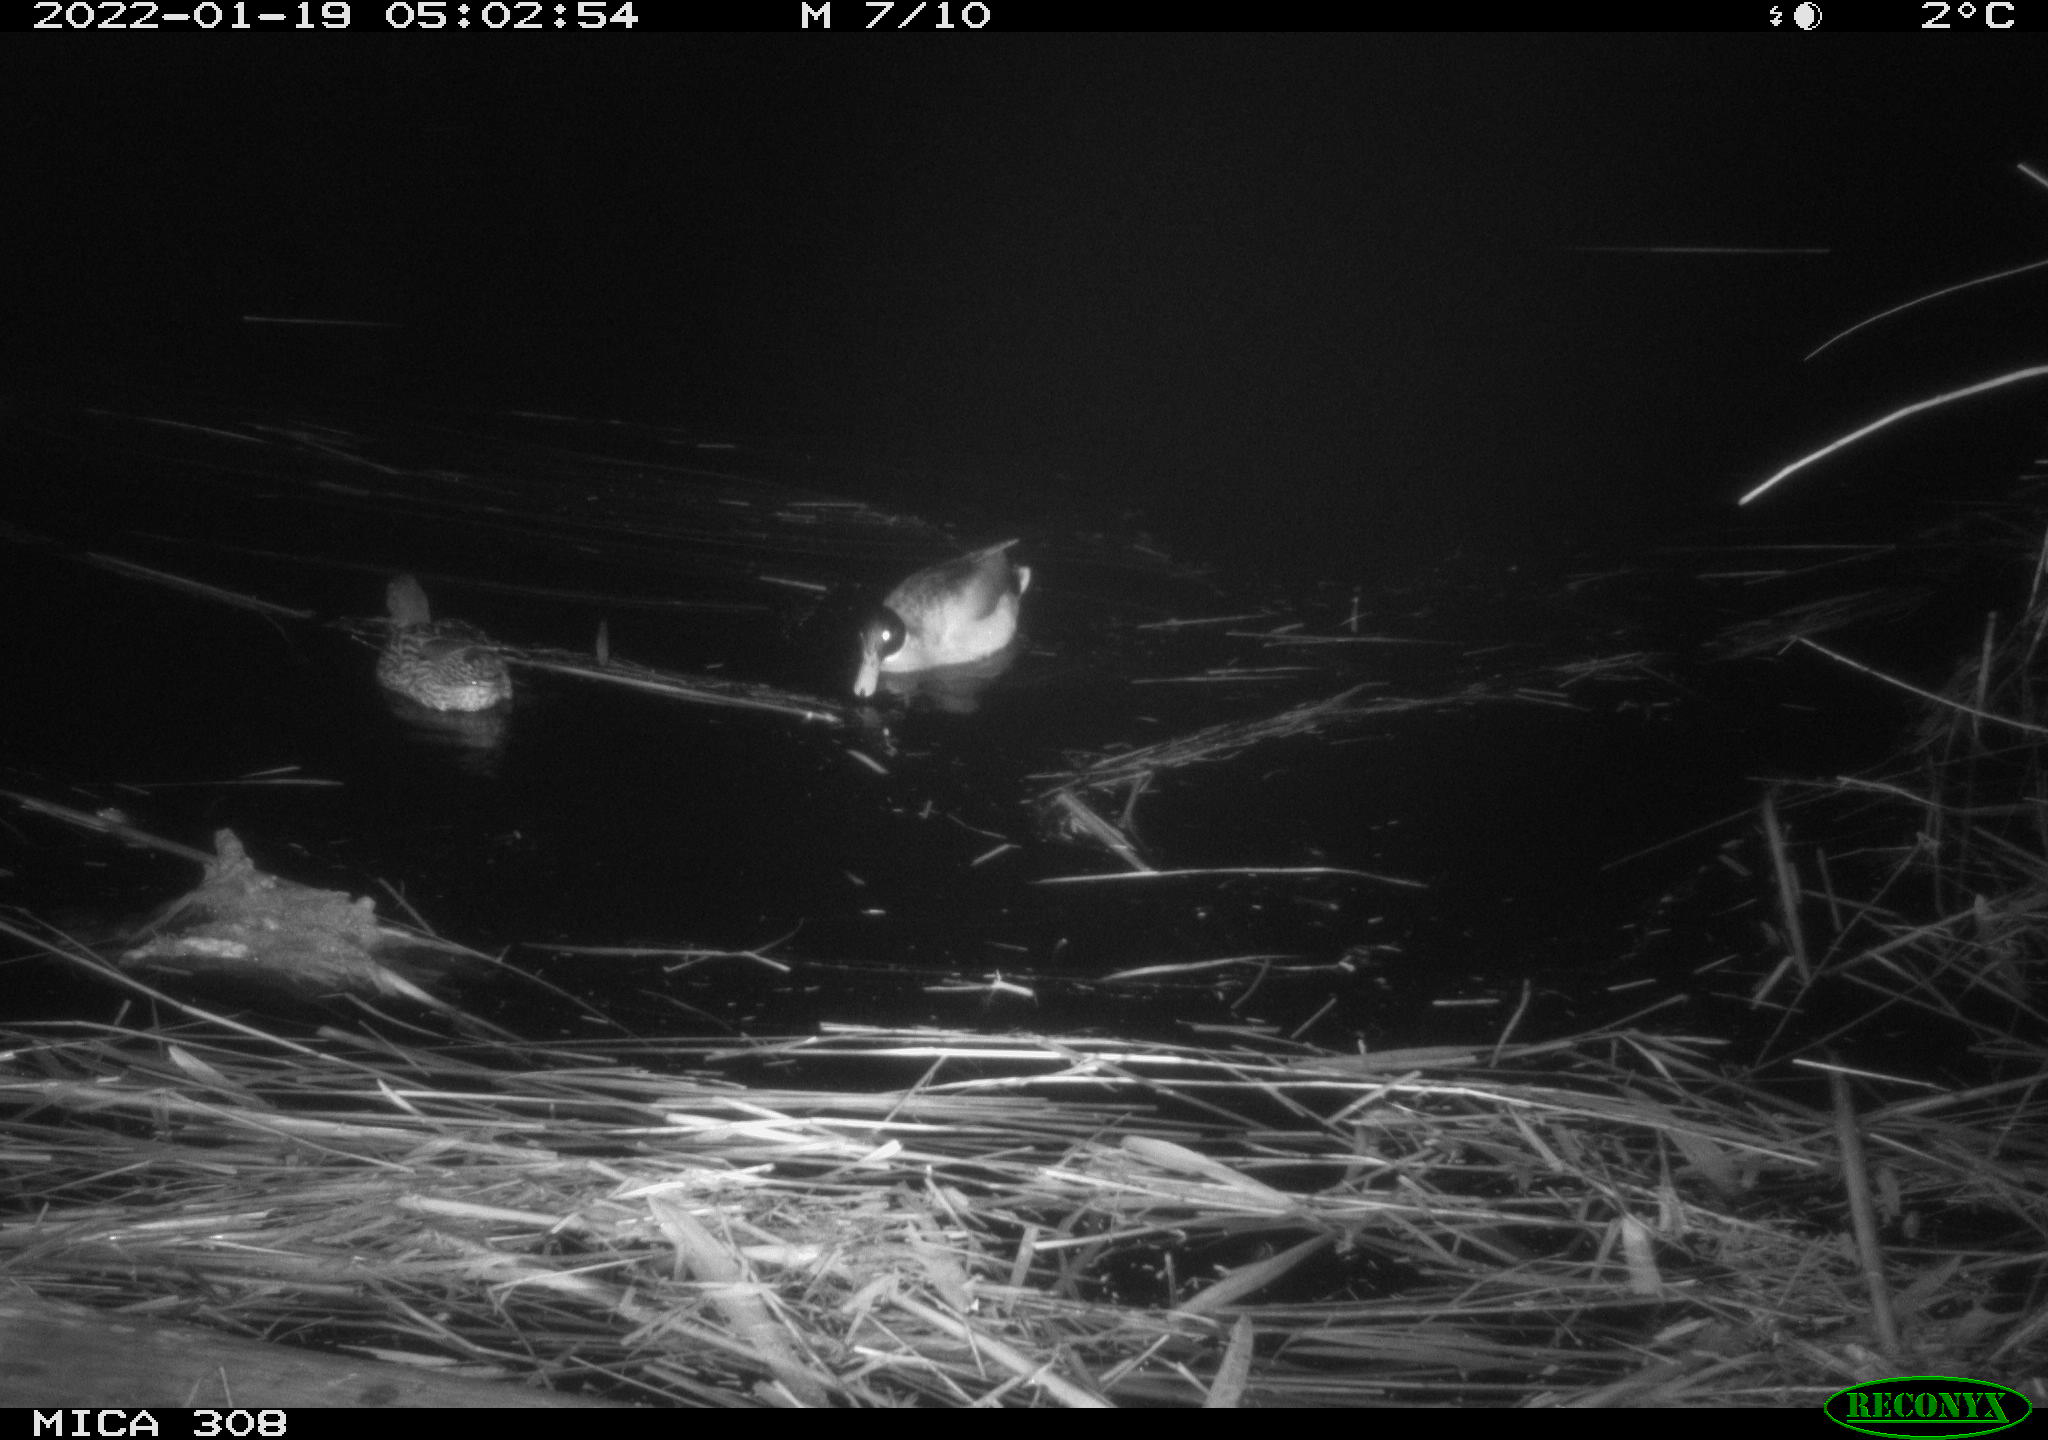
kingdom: Animalia
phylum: Chordata
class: Aves
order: Anseriformes
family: Anatidae
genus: Anas
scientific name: Anas
